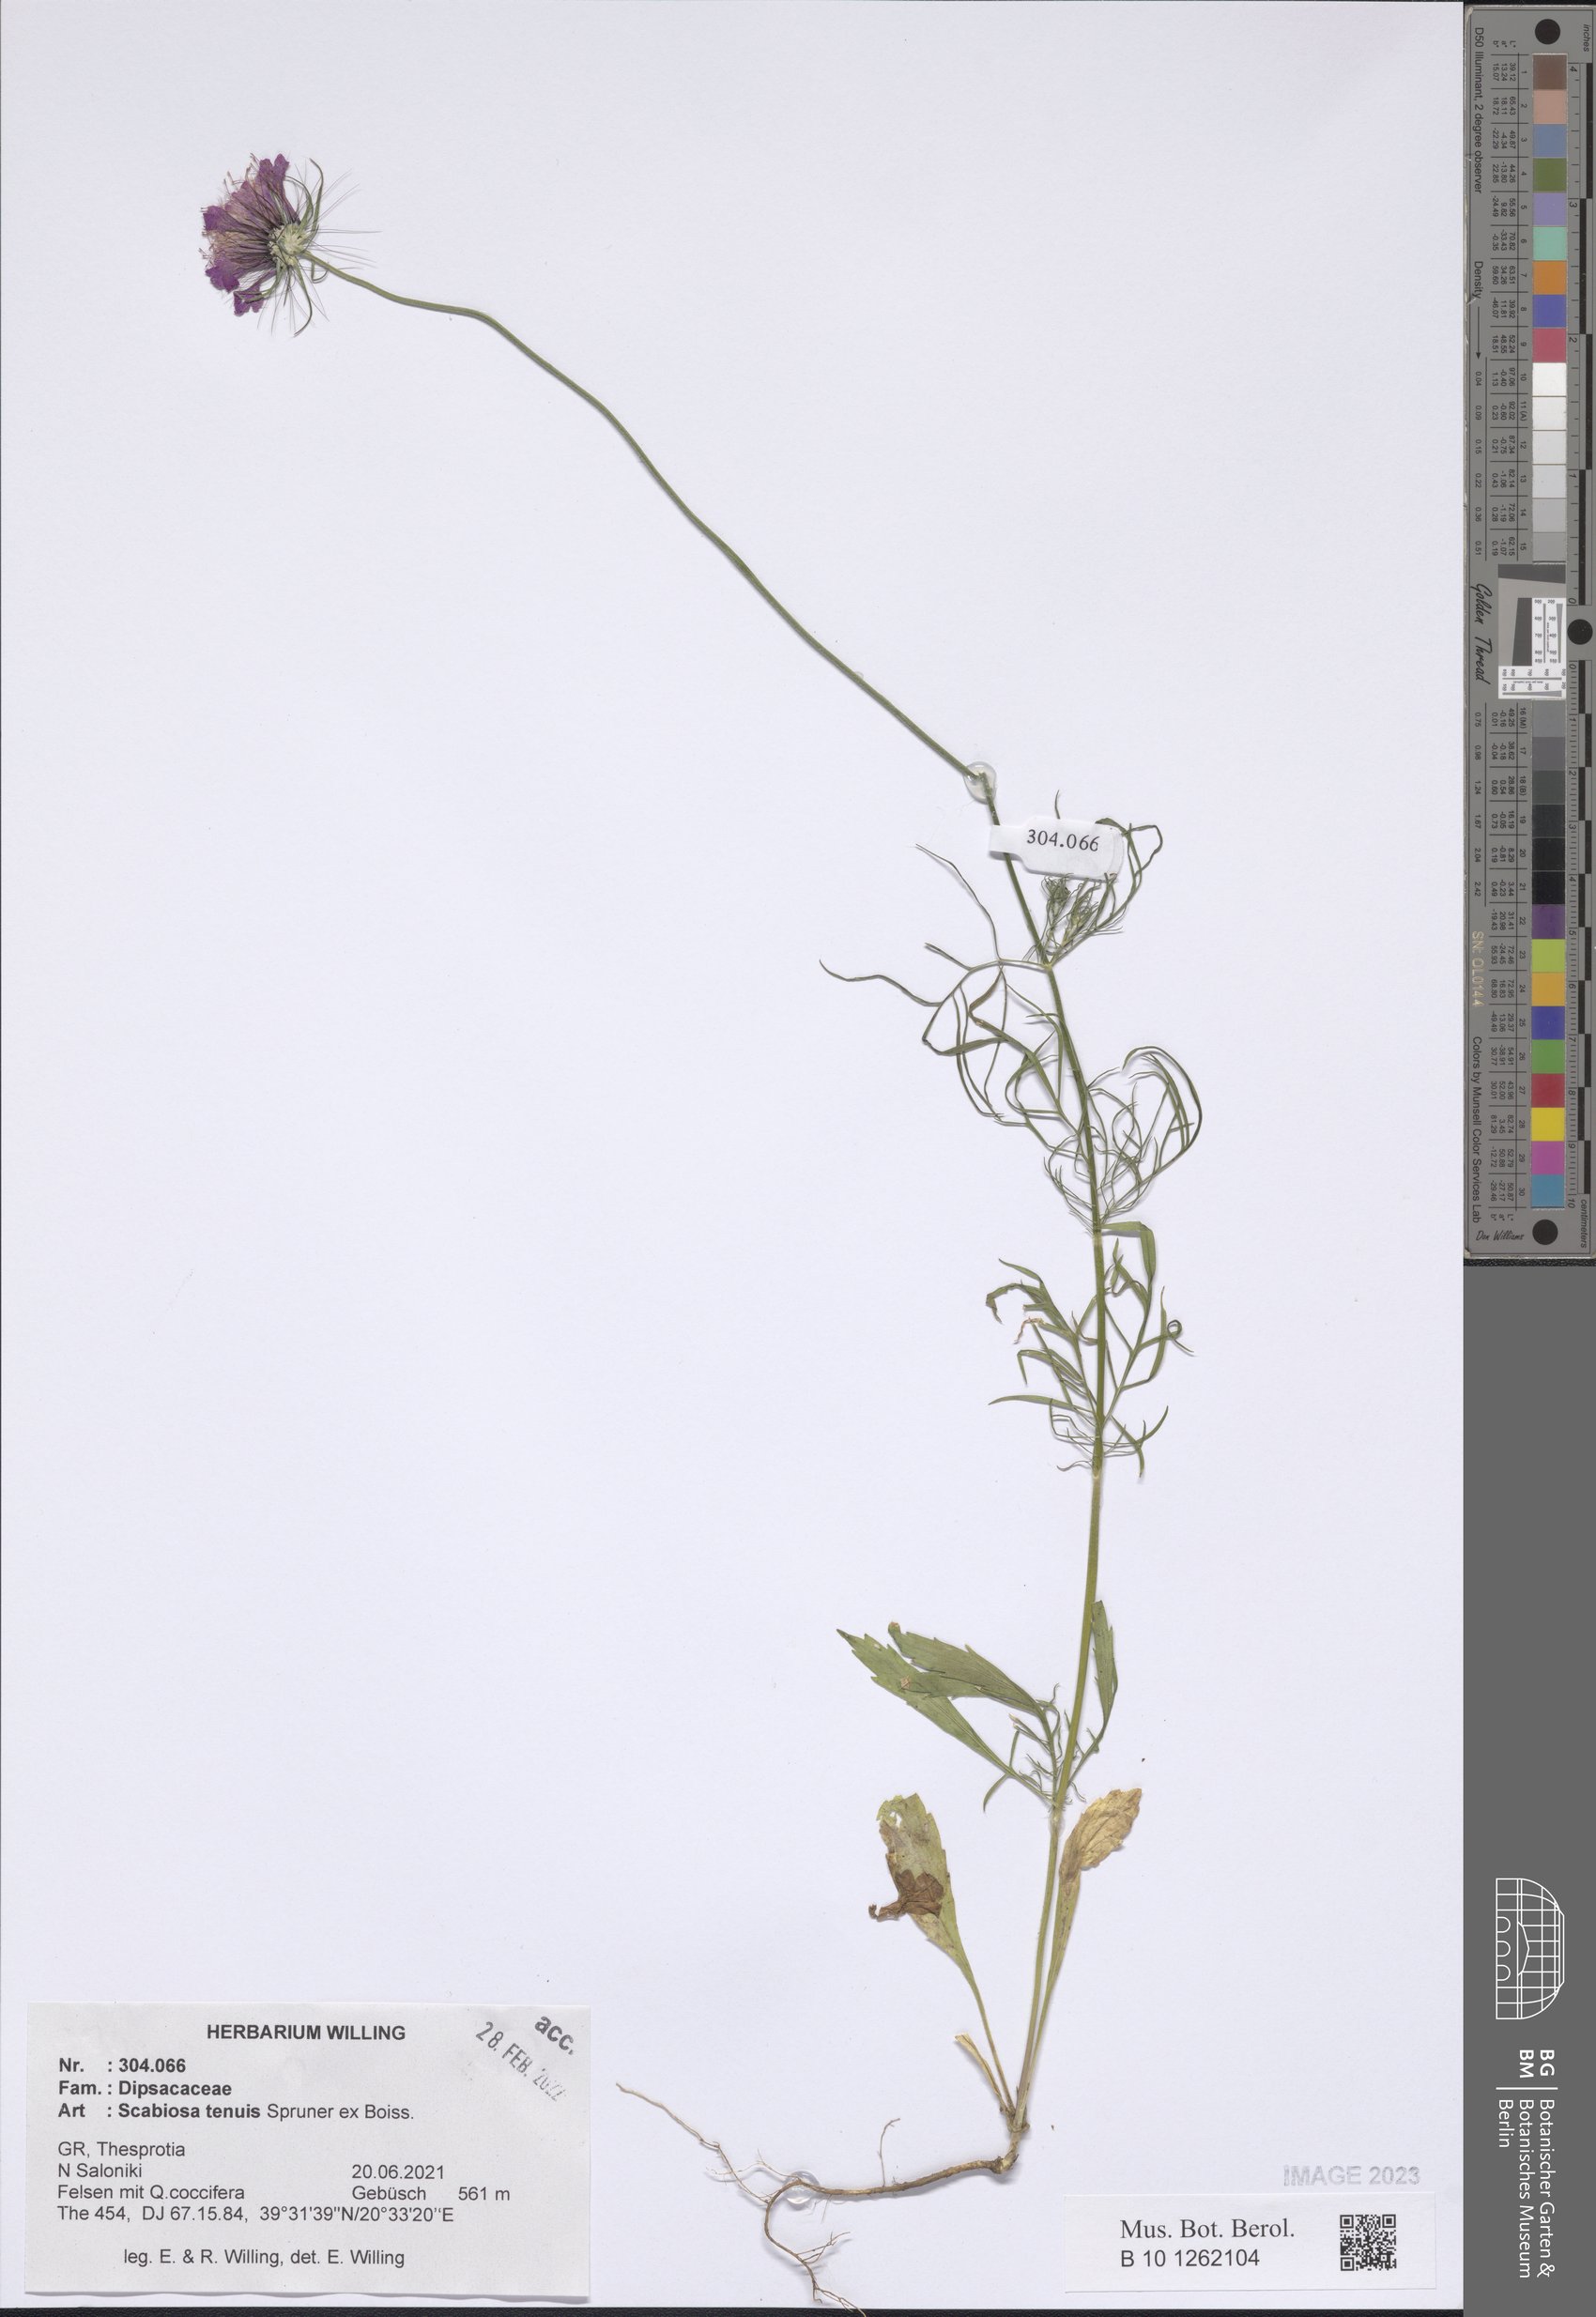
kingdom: Plantae
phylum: Tracheophyta
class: Magnoliopsida
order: Dipsacales
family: Caprifoliaceae
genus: Scabiosa
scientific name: Scabiosa tenuis
